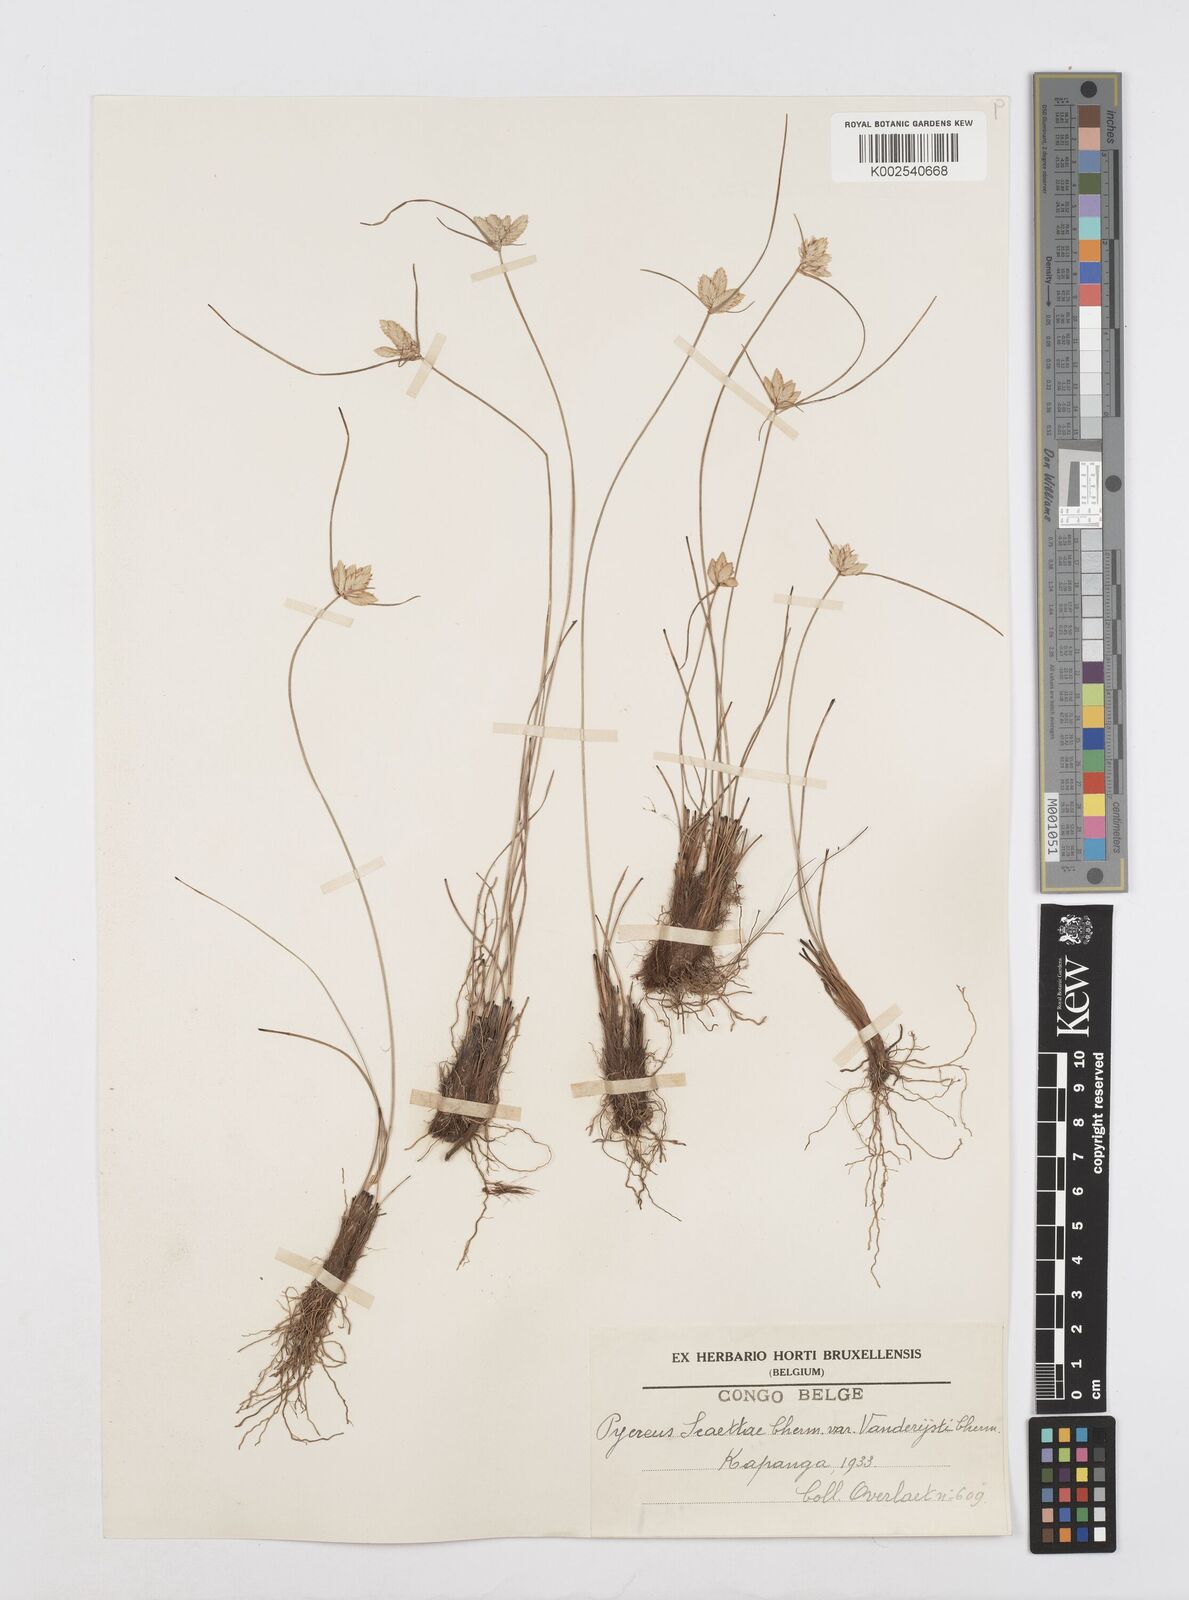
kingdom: Plantae
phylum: Tracheophyta
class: Liliopsida
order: Poales
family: Cyperaceae
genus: Cyperus
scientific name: Cyperus
